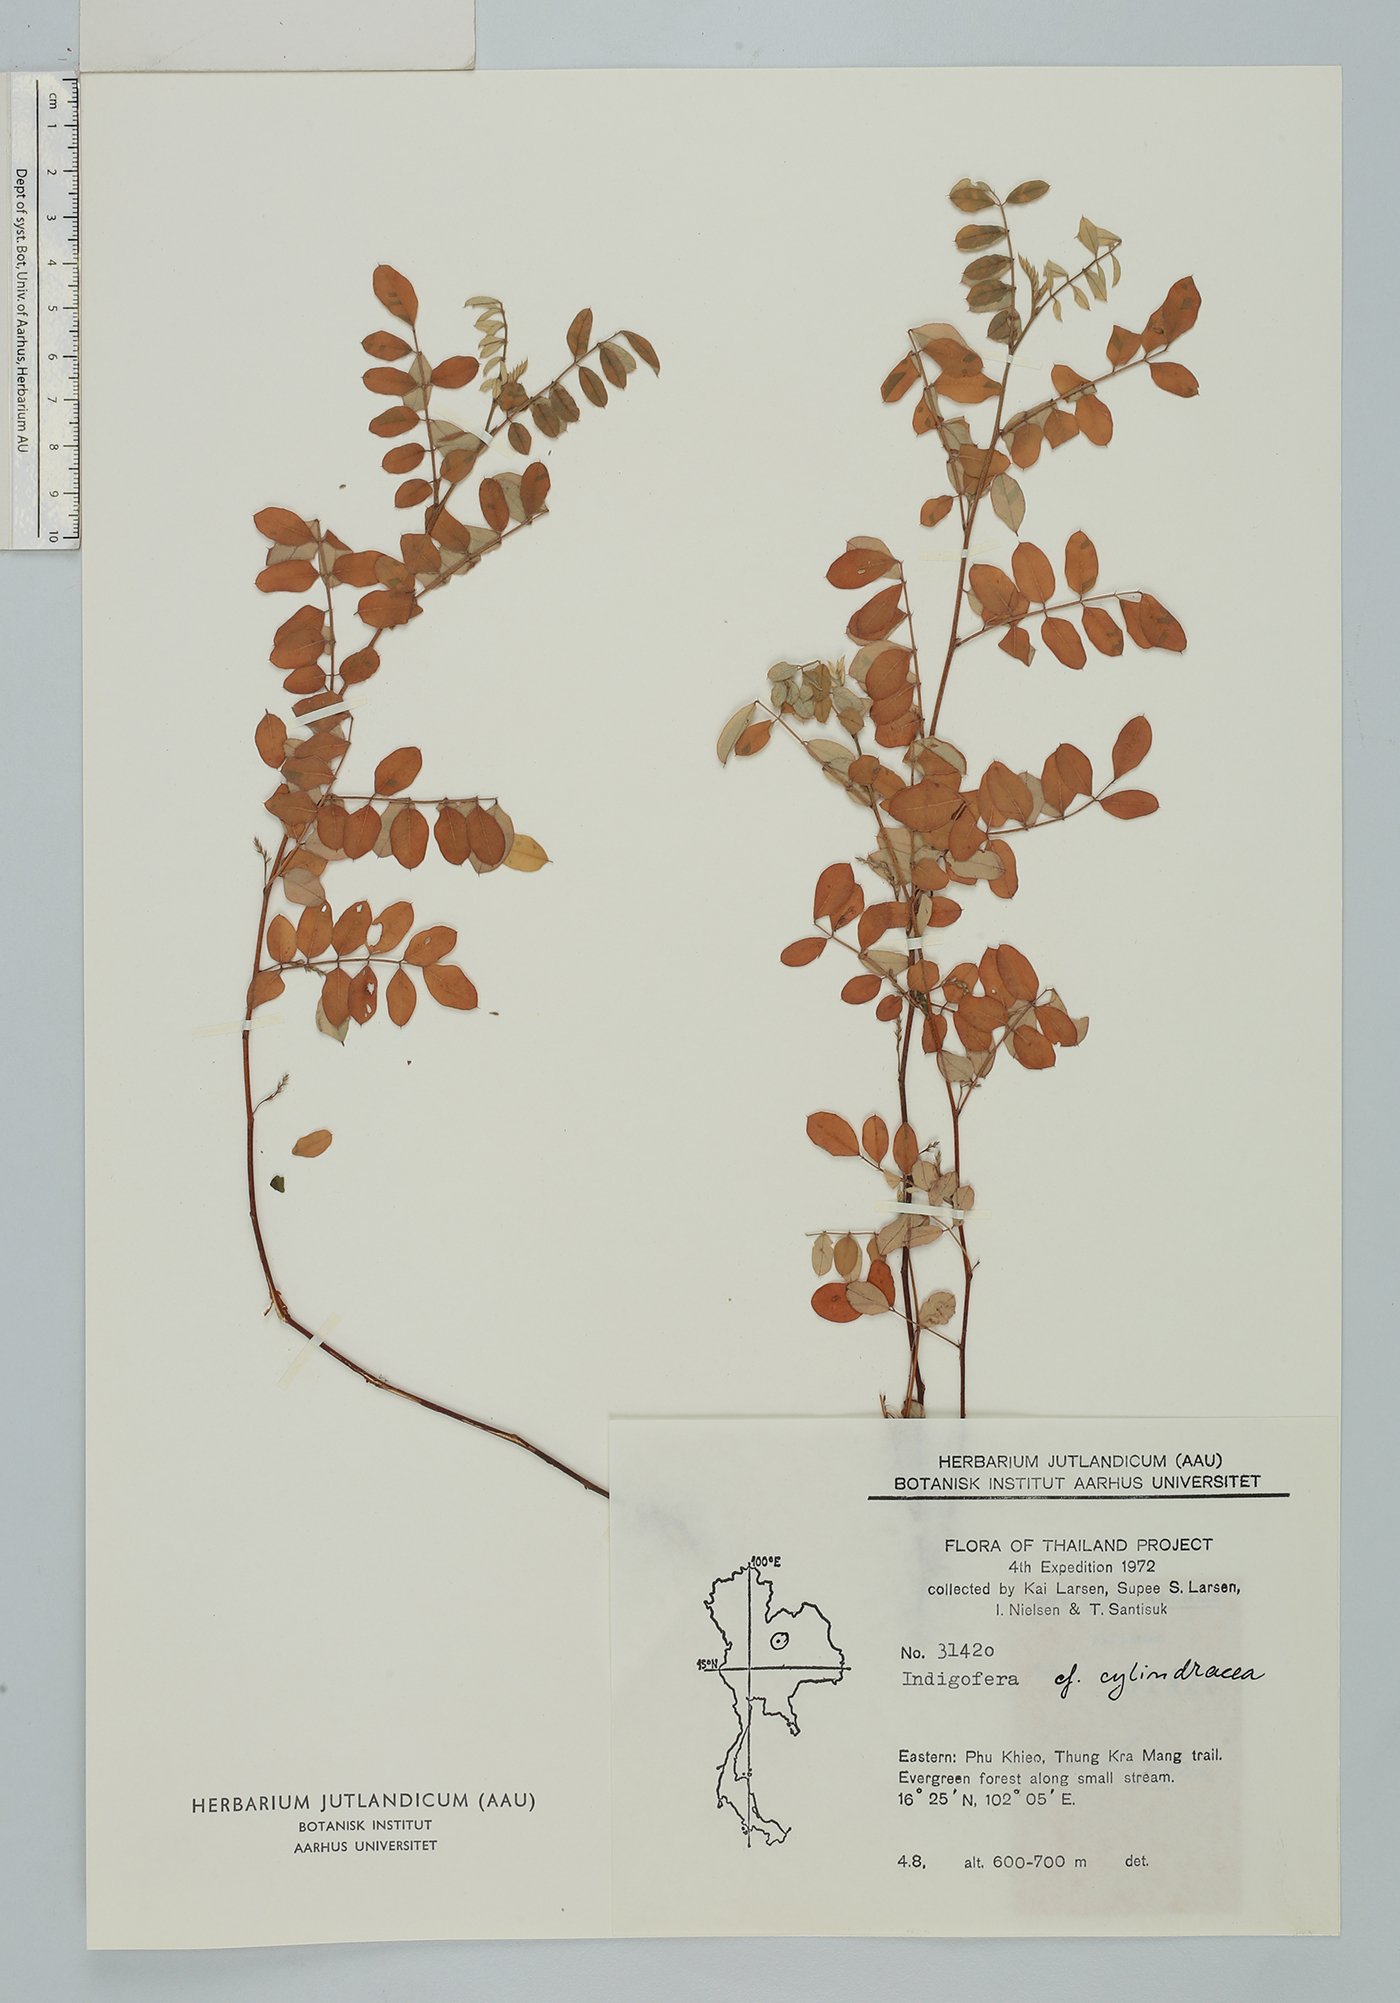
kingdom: Plantae
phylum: Tracheophyta
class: Magnoliopsida
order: Fabales
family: Fabaceae
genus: Indigofera
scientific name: Indigofera cylindracea
